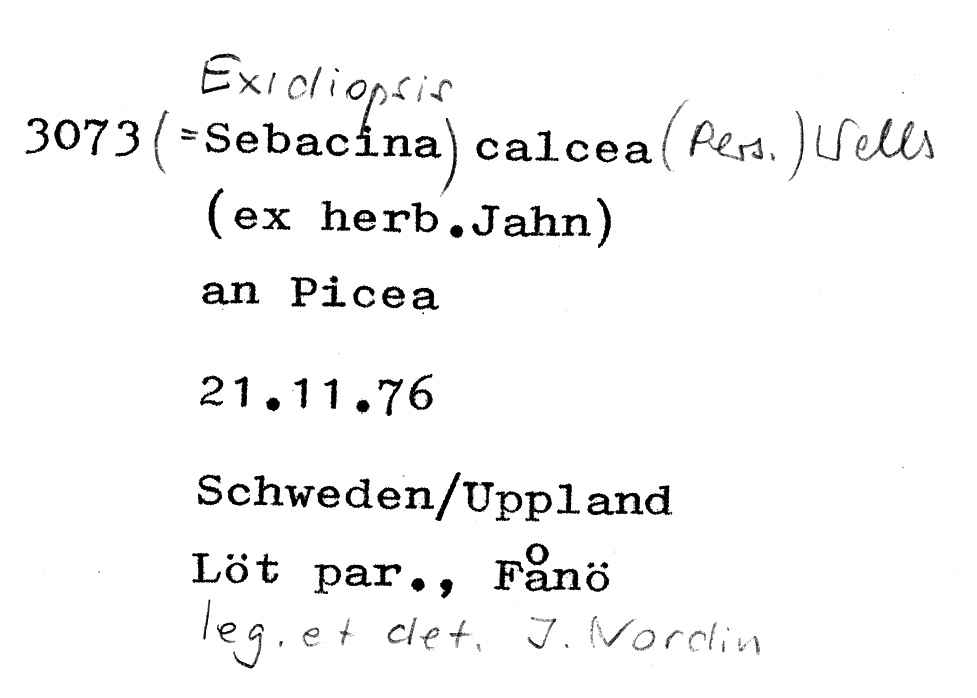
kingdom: Plantae
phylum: Tracheophyta
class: Pinopsida
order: Pinales
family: Pinaceae
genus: Picea
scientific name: Picea
